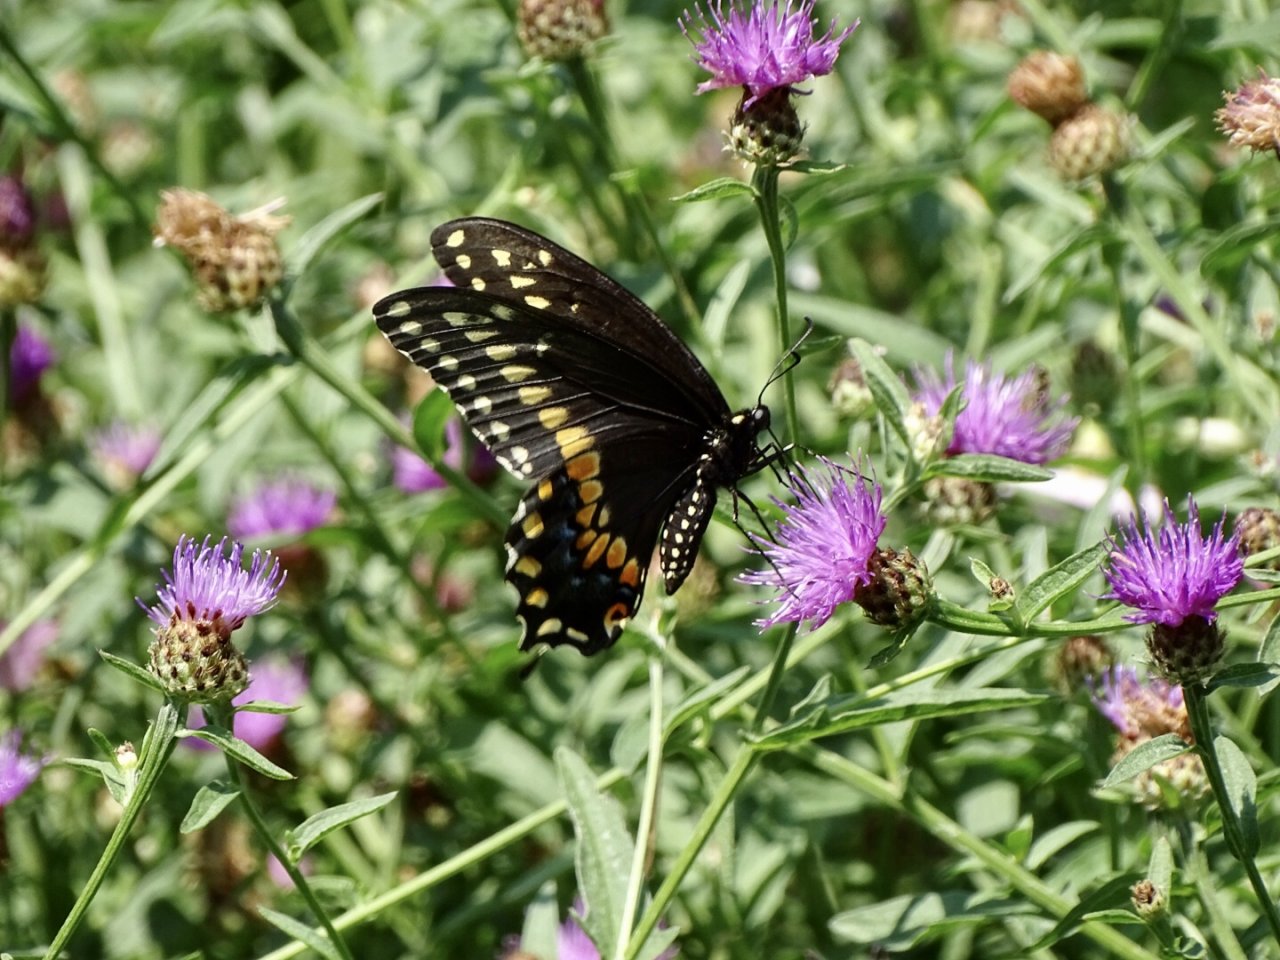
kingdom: Animalia
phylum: Arthropoda
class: Insecta
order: Lepidoptera
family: Papilionidae
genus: Papilio
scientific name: Papilio polyxenes
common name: Black Swallowtail
